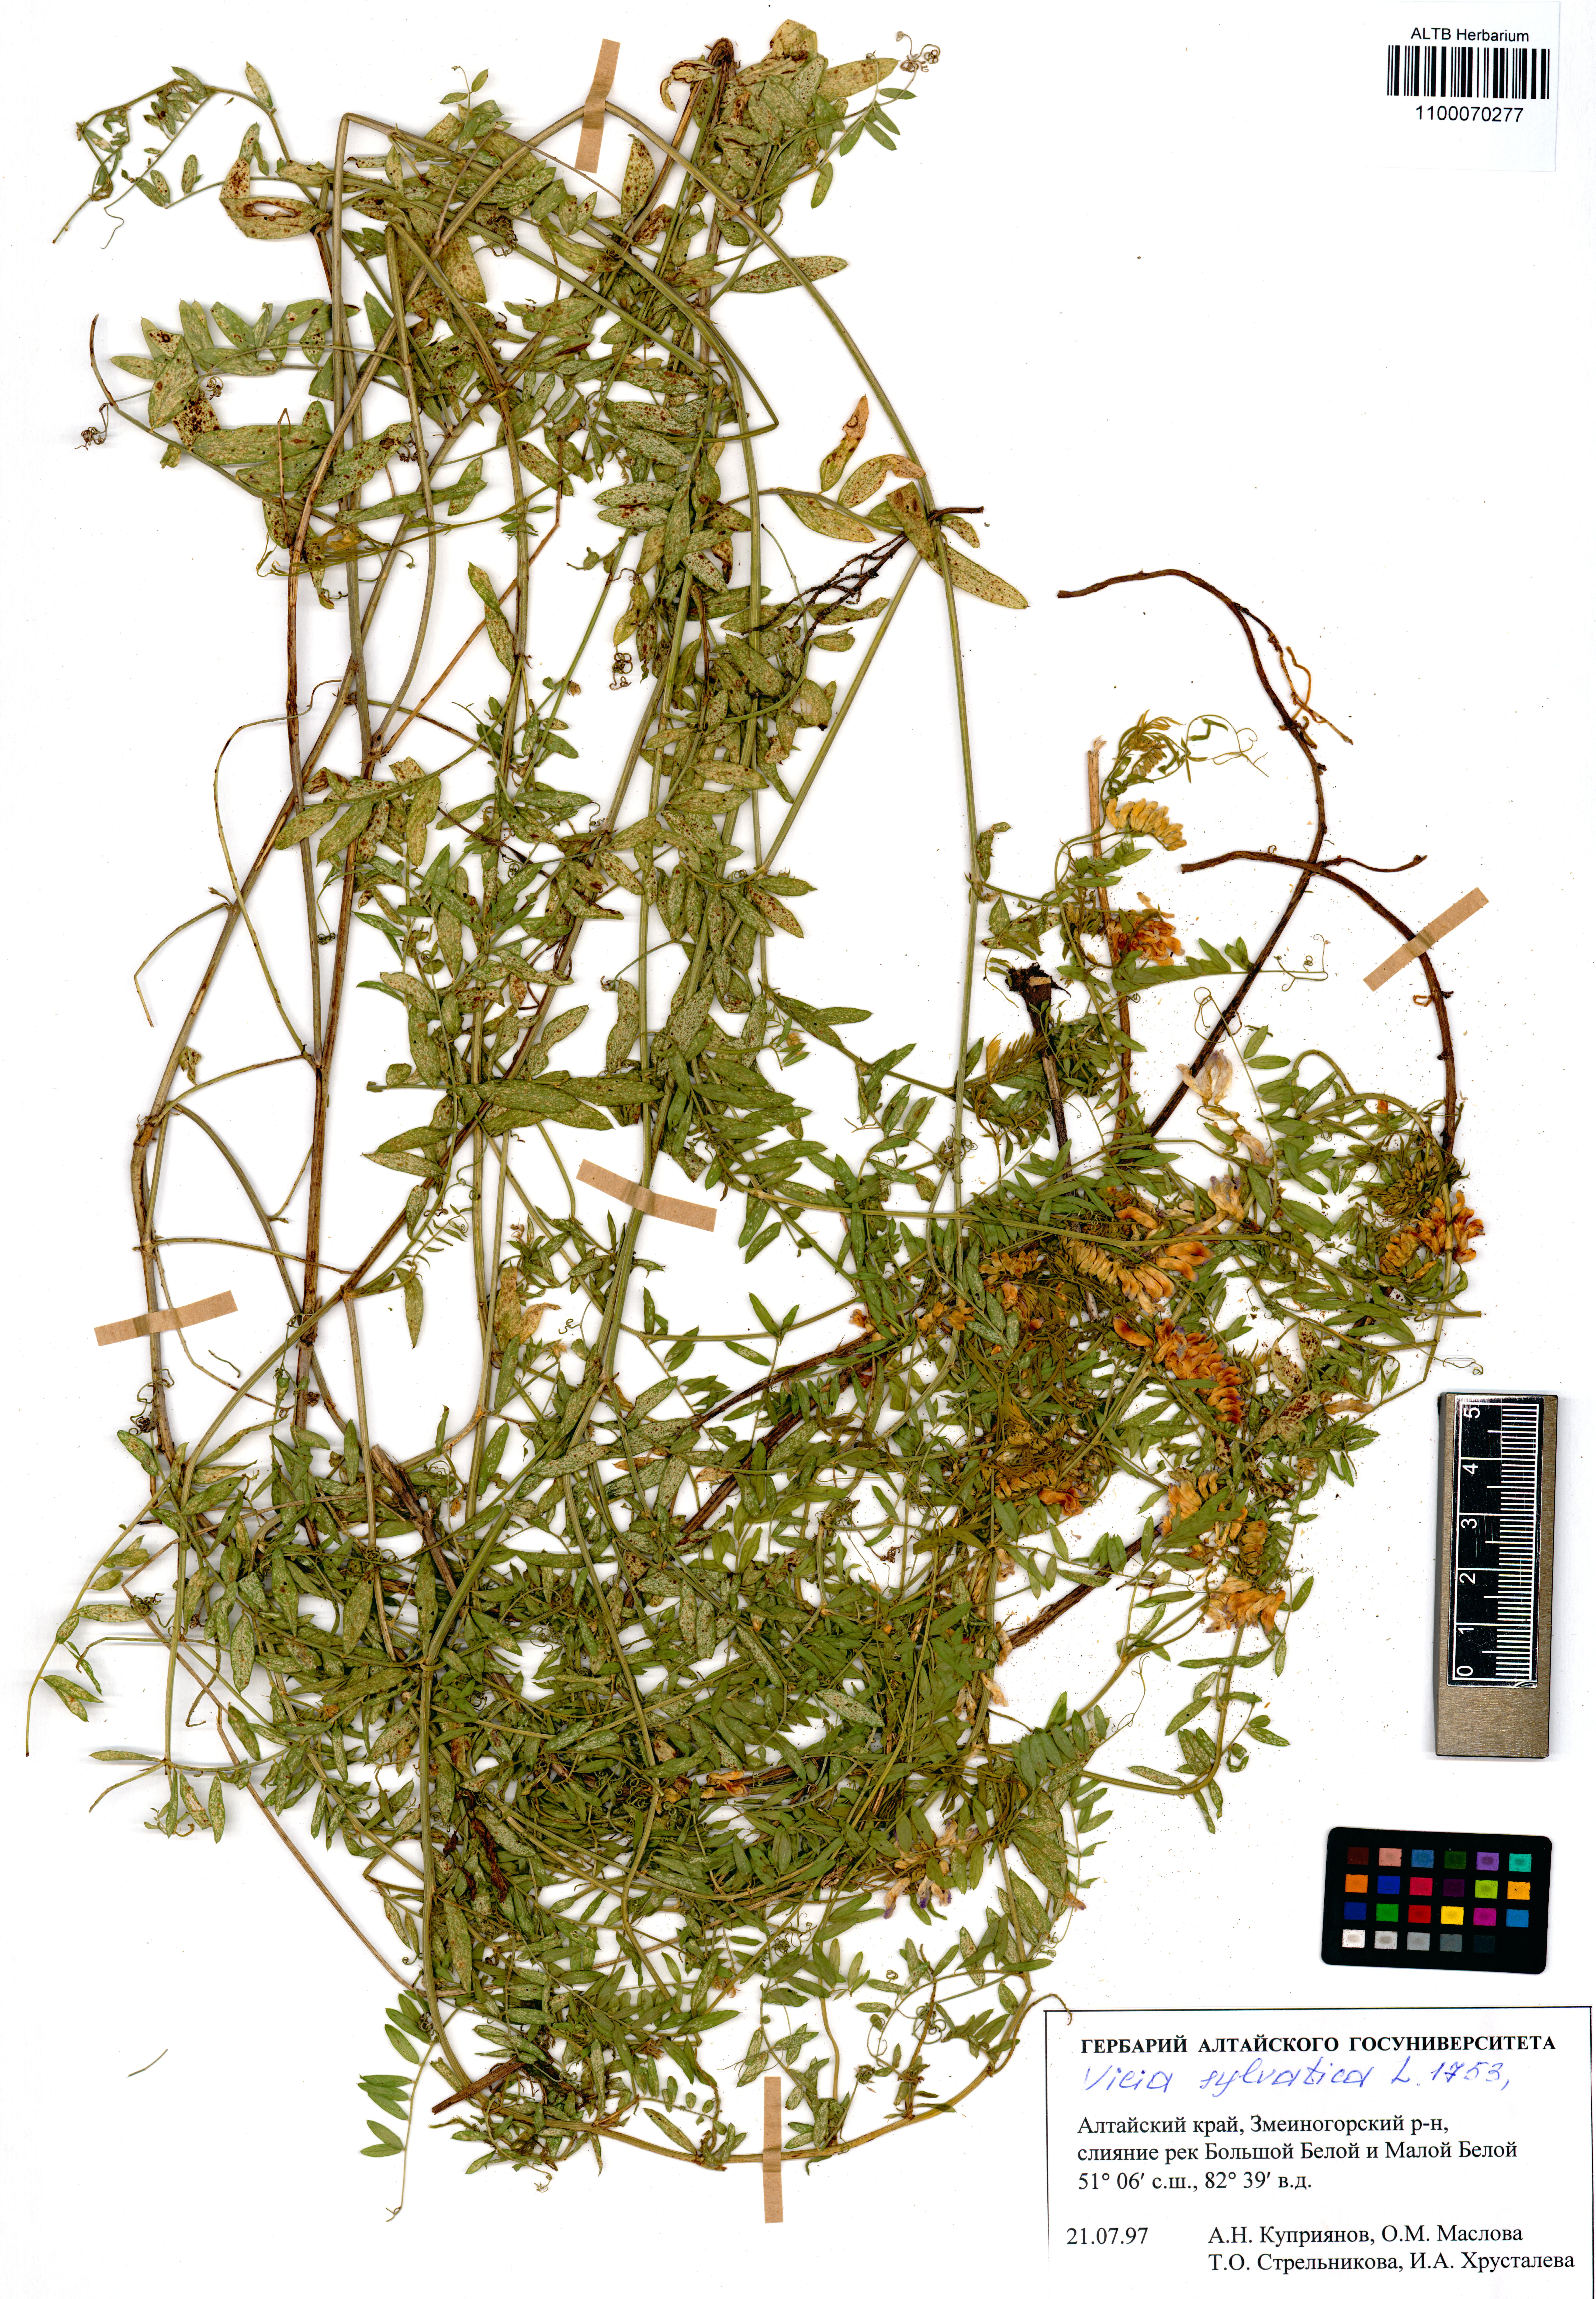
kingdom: Plantae
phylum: Tracheophyta
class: Magnoliopsida
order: Fabales
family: Fabaceae
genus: Vicia
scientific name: Vicia bakeri
